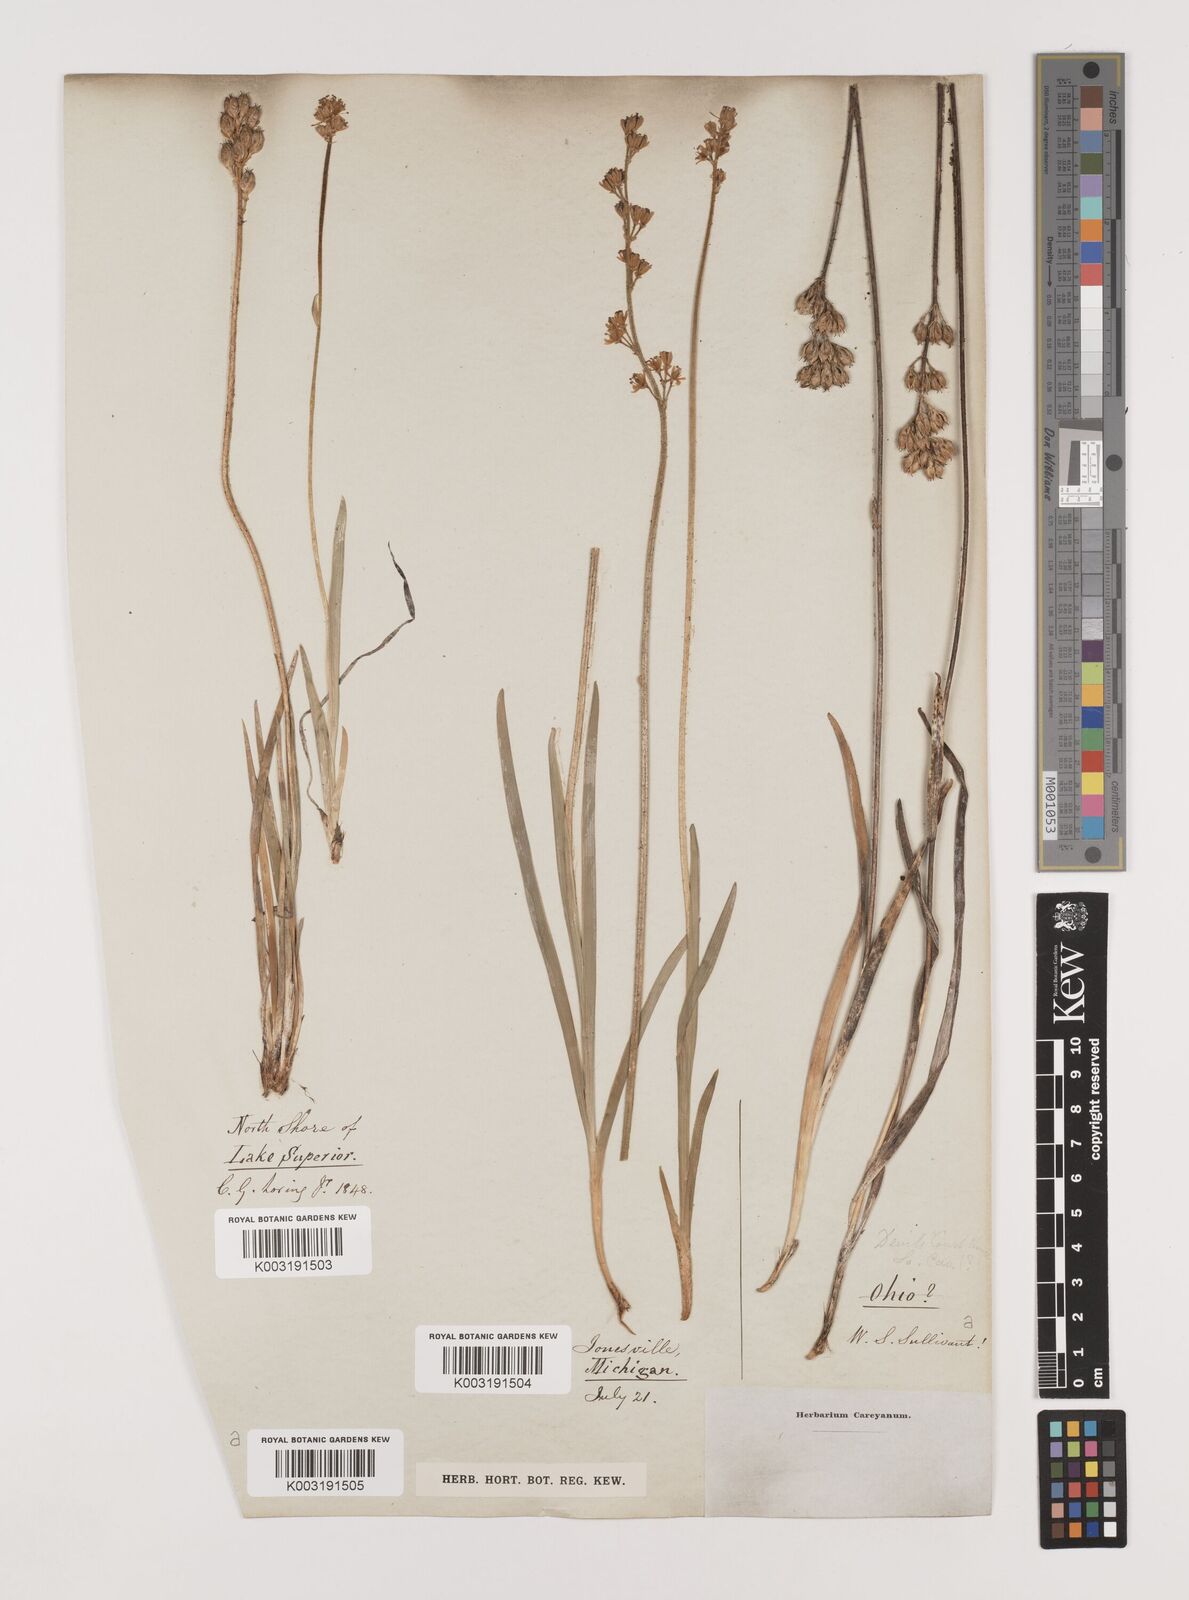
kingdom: Plantae
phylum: Tracheophyta
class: Liliopsida
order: Alismatales
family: Tofieldiaceae
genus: Tofieldia
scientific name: Tofieldia
